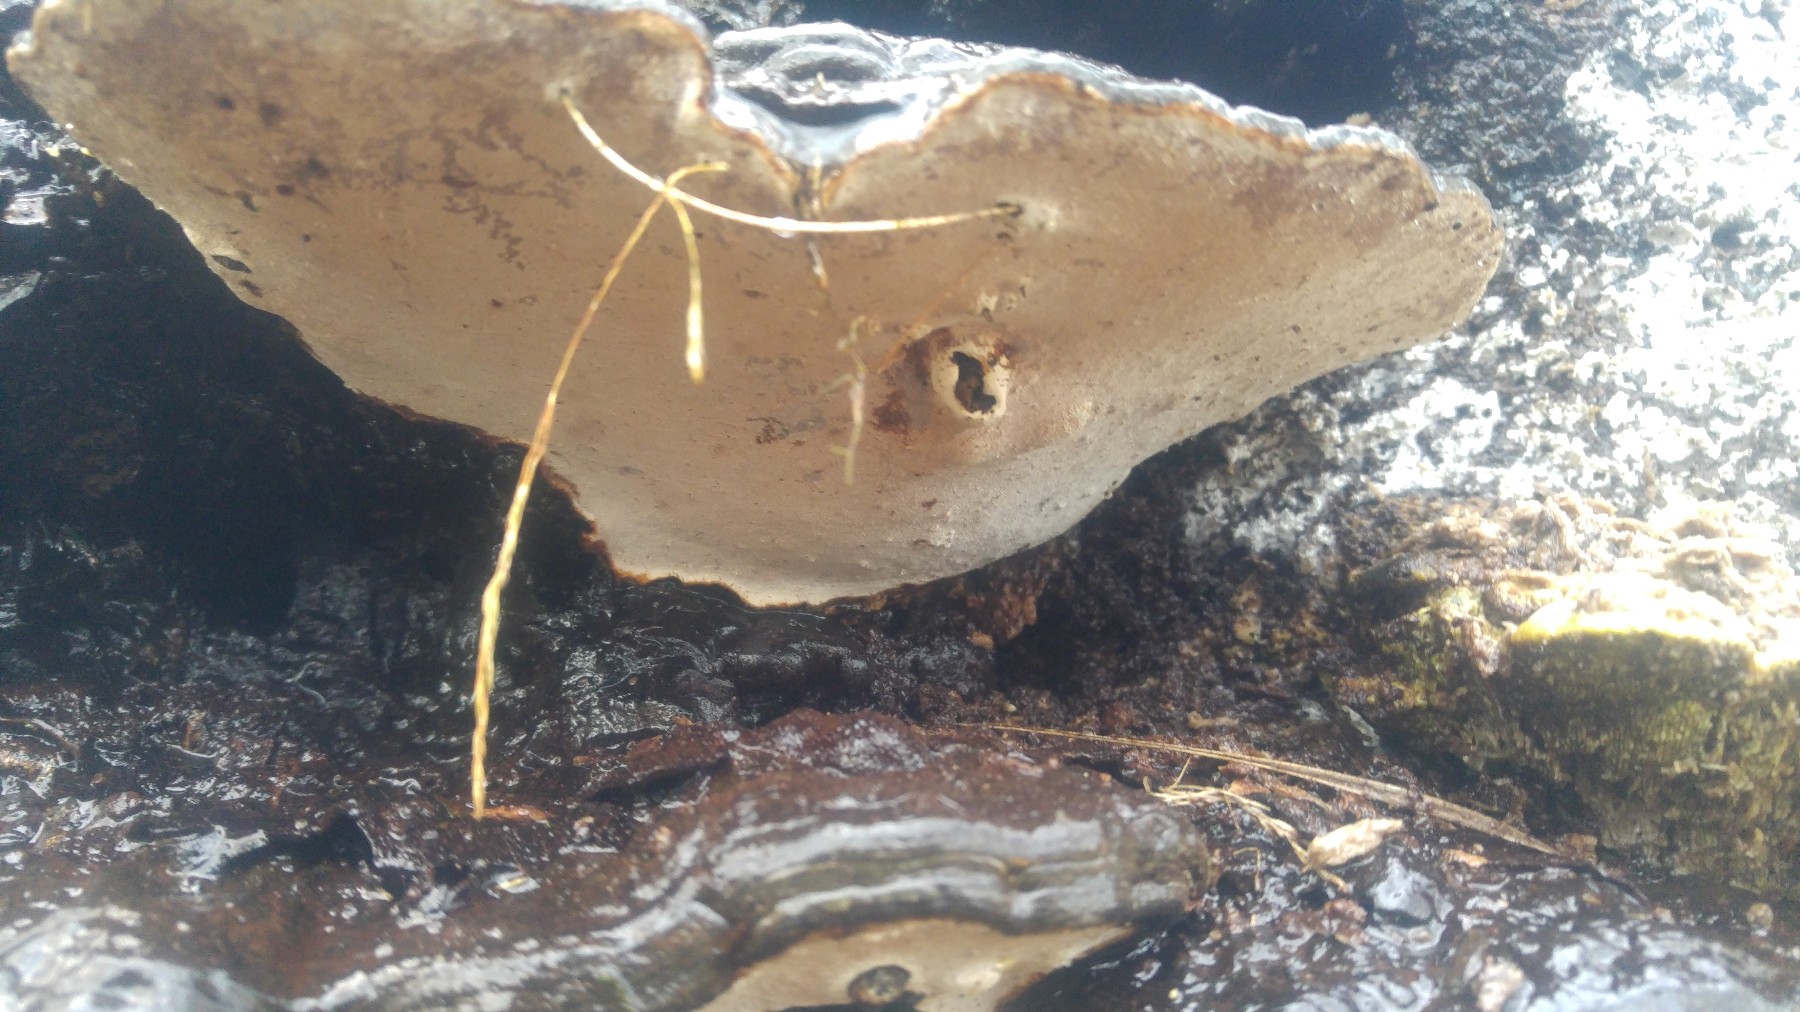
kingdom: Fungi
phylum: Basidiomycota
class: Agaricomycetes
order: Polyporales
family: Polyporaceae
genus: Ganoderma
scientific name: Ganoderma applanatum
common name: flad lakporesvamp
